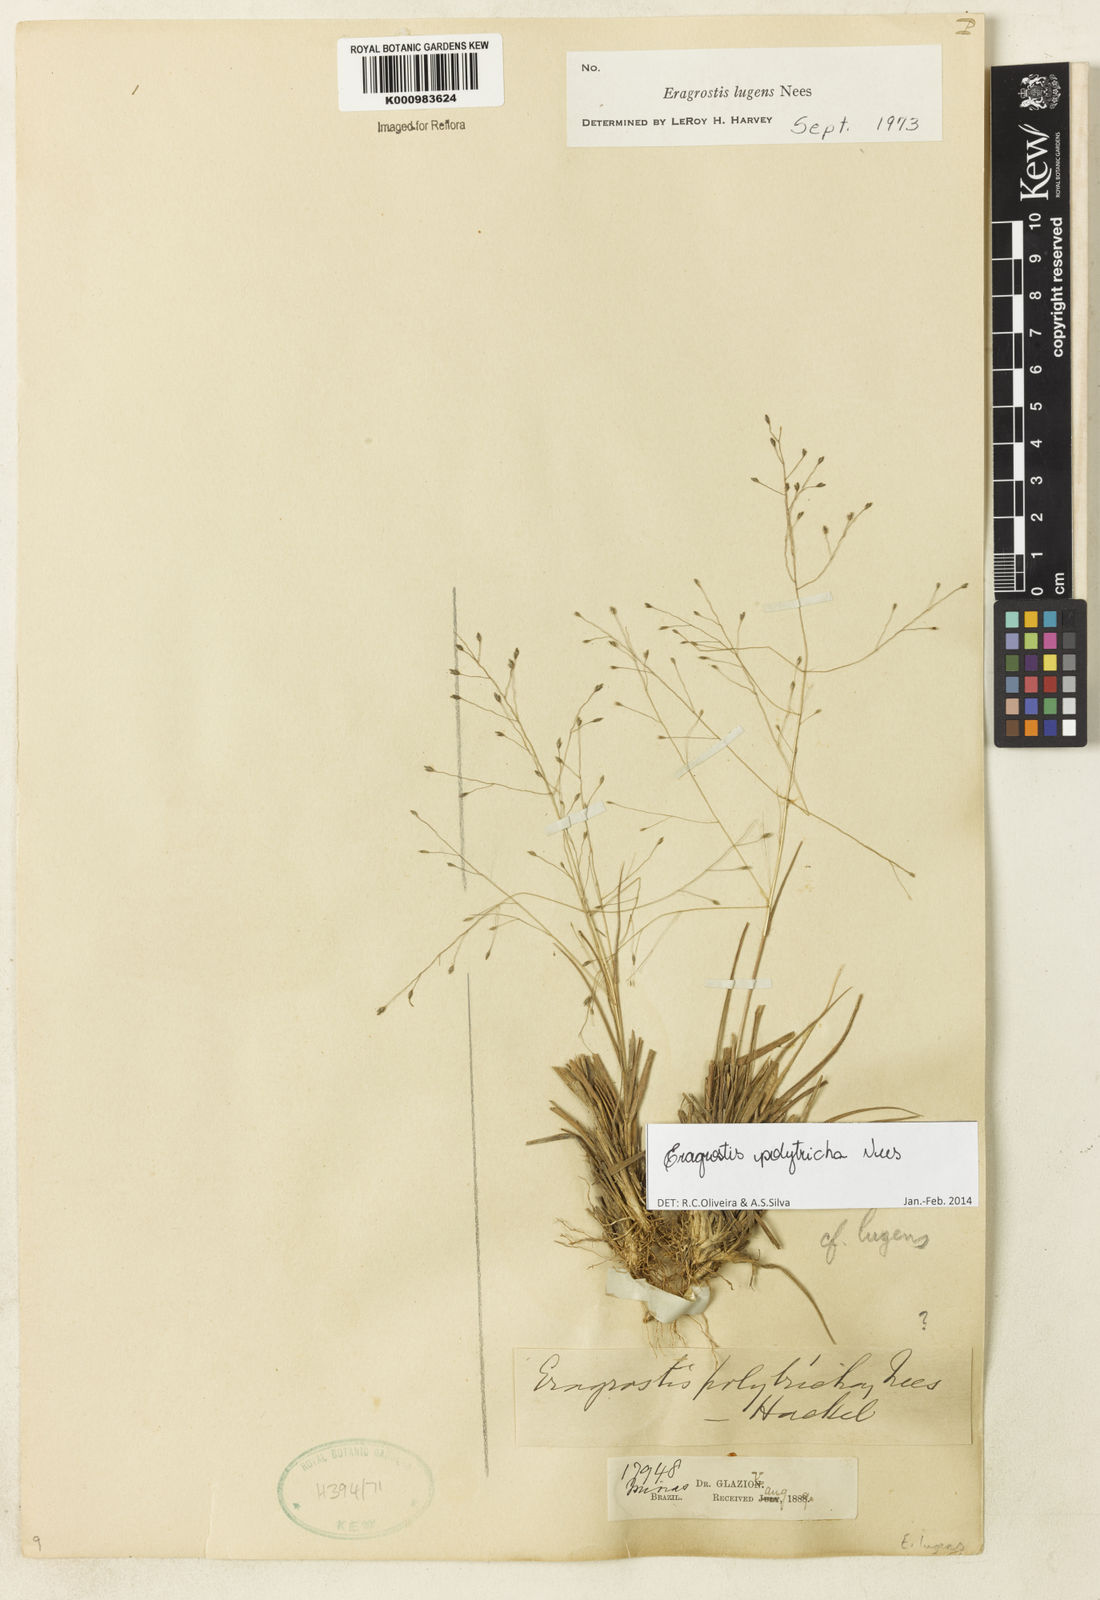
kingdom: Plantae
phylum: Tracheophyta
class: Liliopsida
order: Poales
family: Poaceae
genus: Eragrostis
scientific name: Eragrostis polytricha
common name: Hairy-sheath love grass
